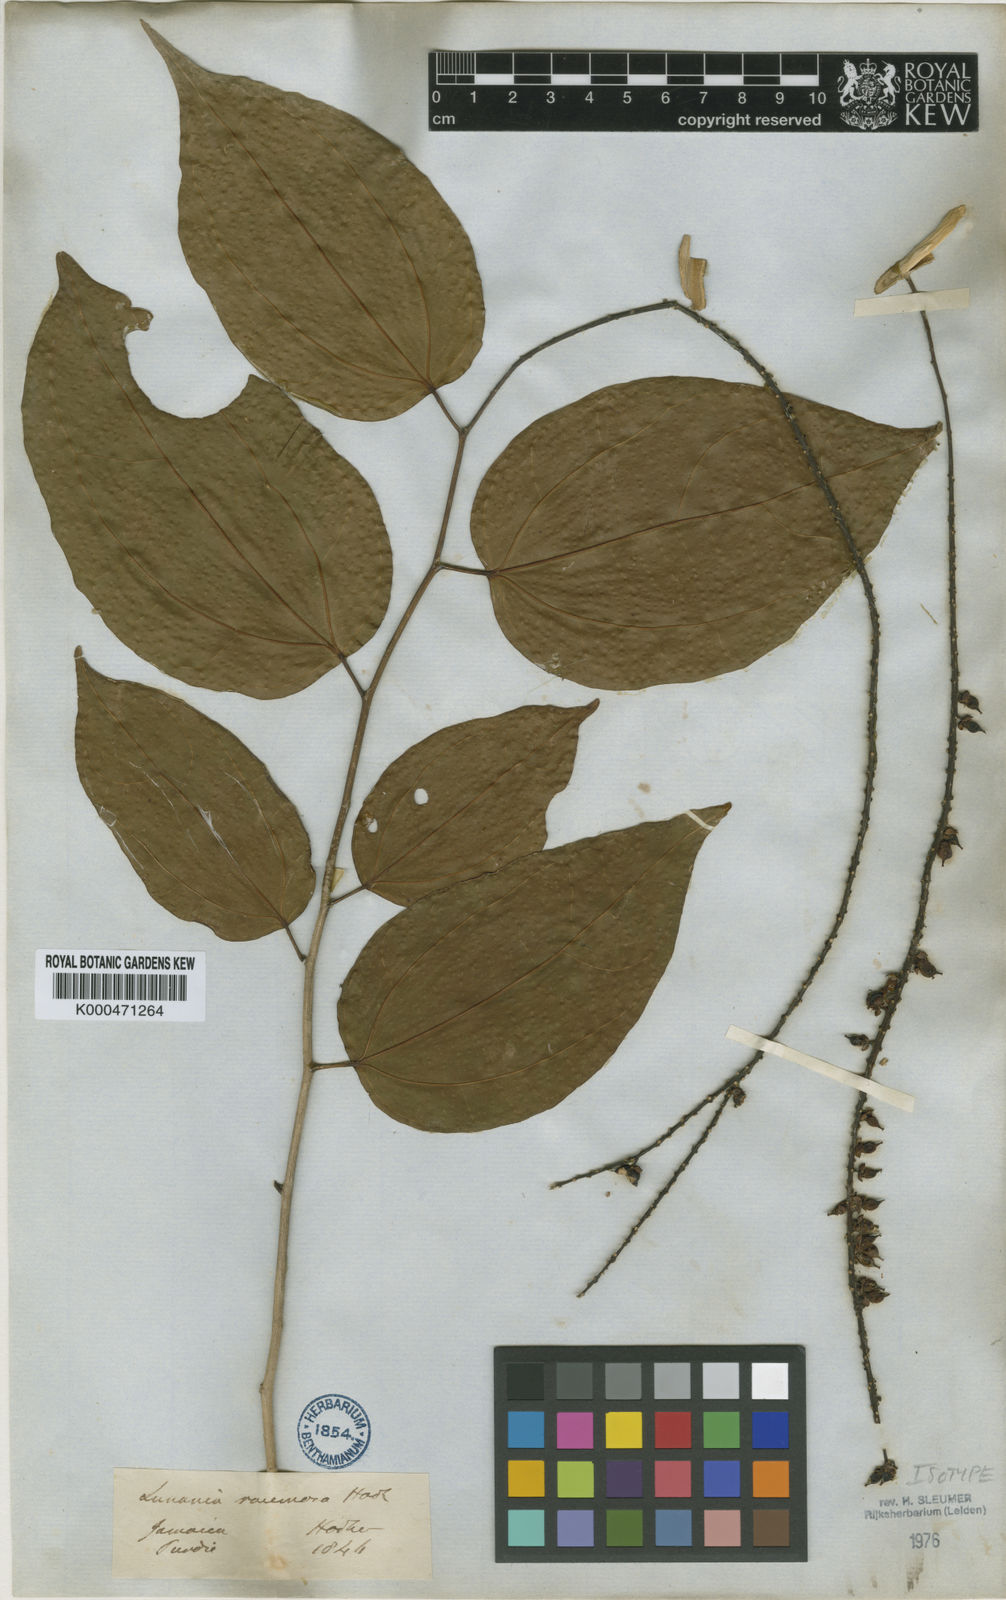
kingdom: Plantae
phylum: Tracheophyta
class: Magnoliopsida
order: Malpighiales
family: Salicaceae
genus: Lunania
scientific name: Lunania racemosa
